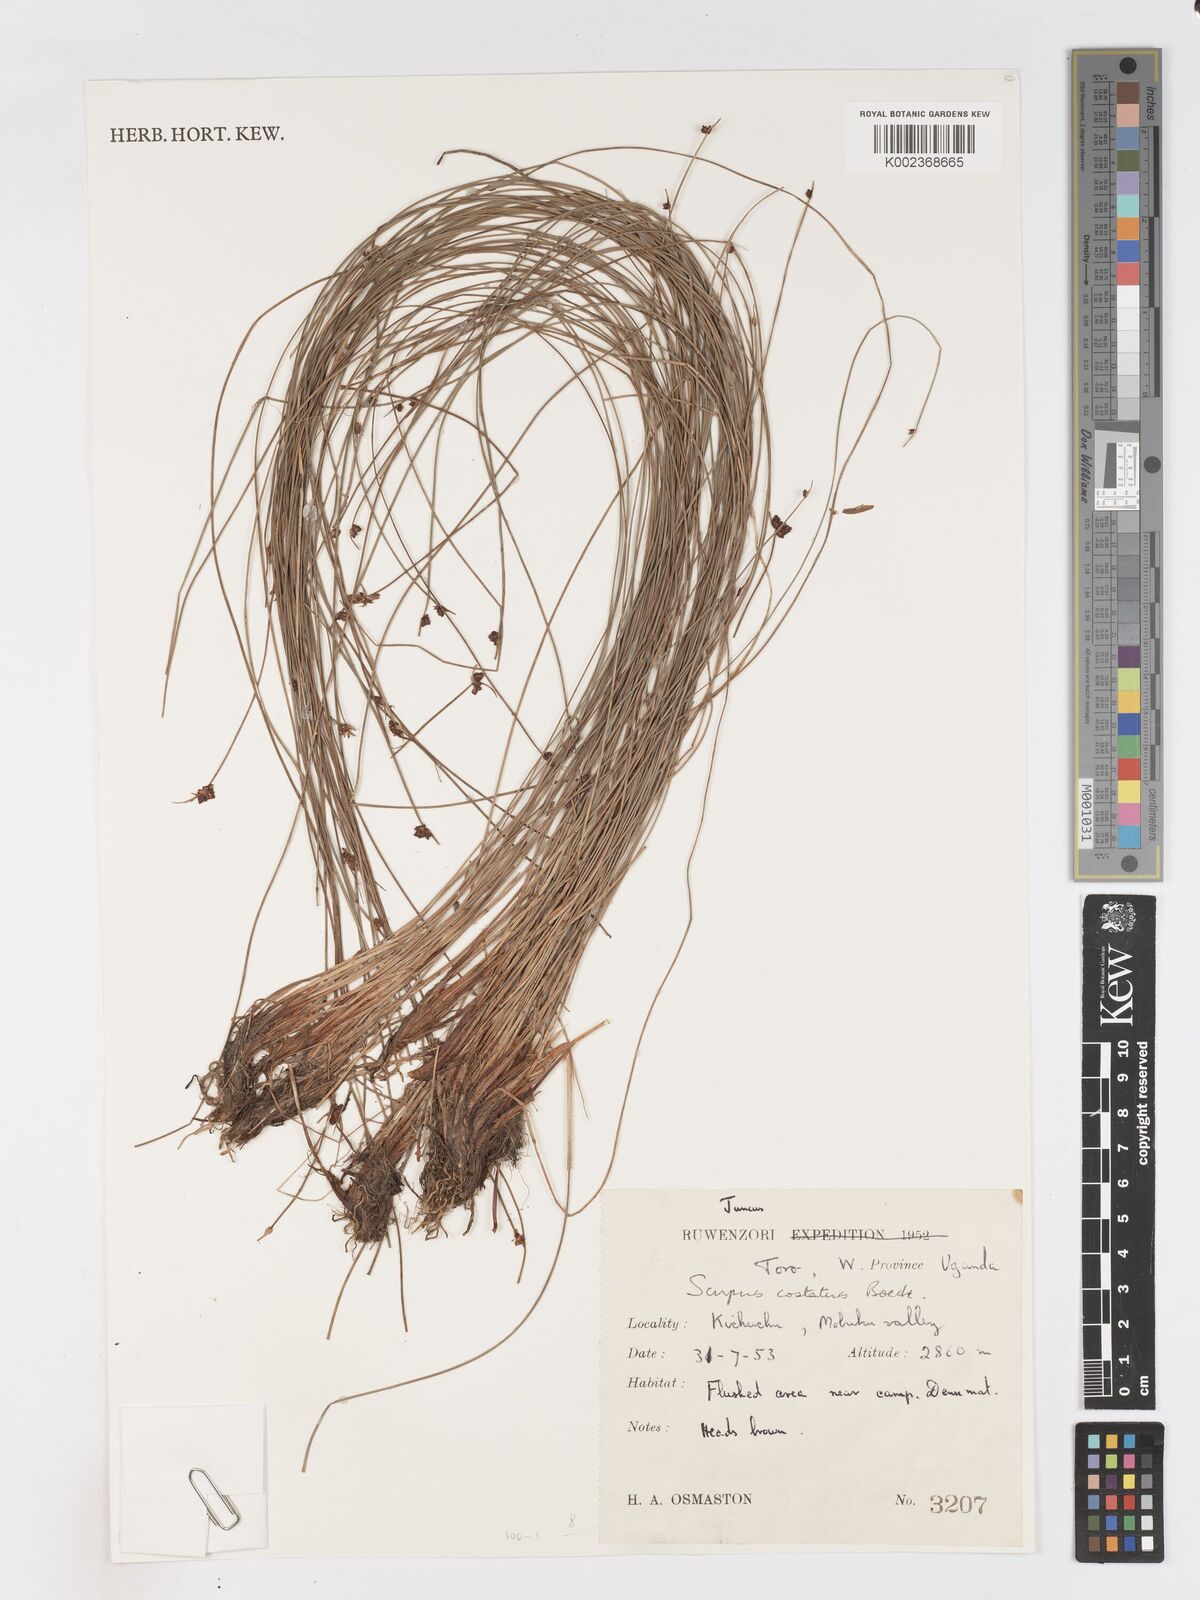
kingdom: Plantae
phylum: Tracheophyta
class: Liliopsida
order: Poales
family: Cyperaceae
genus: Isolepis
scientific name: Isolepis costata
